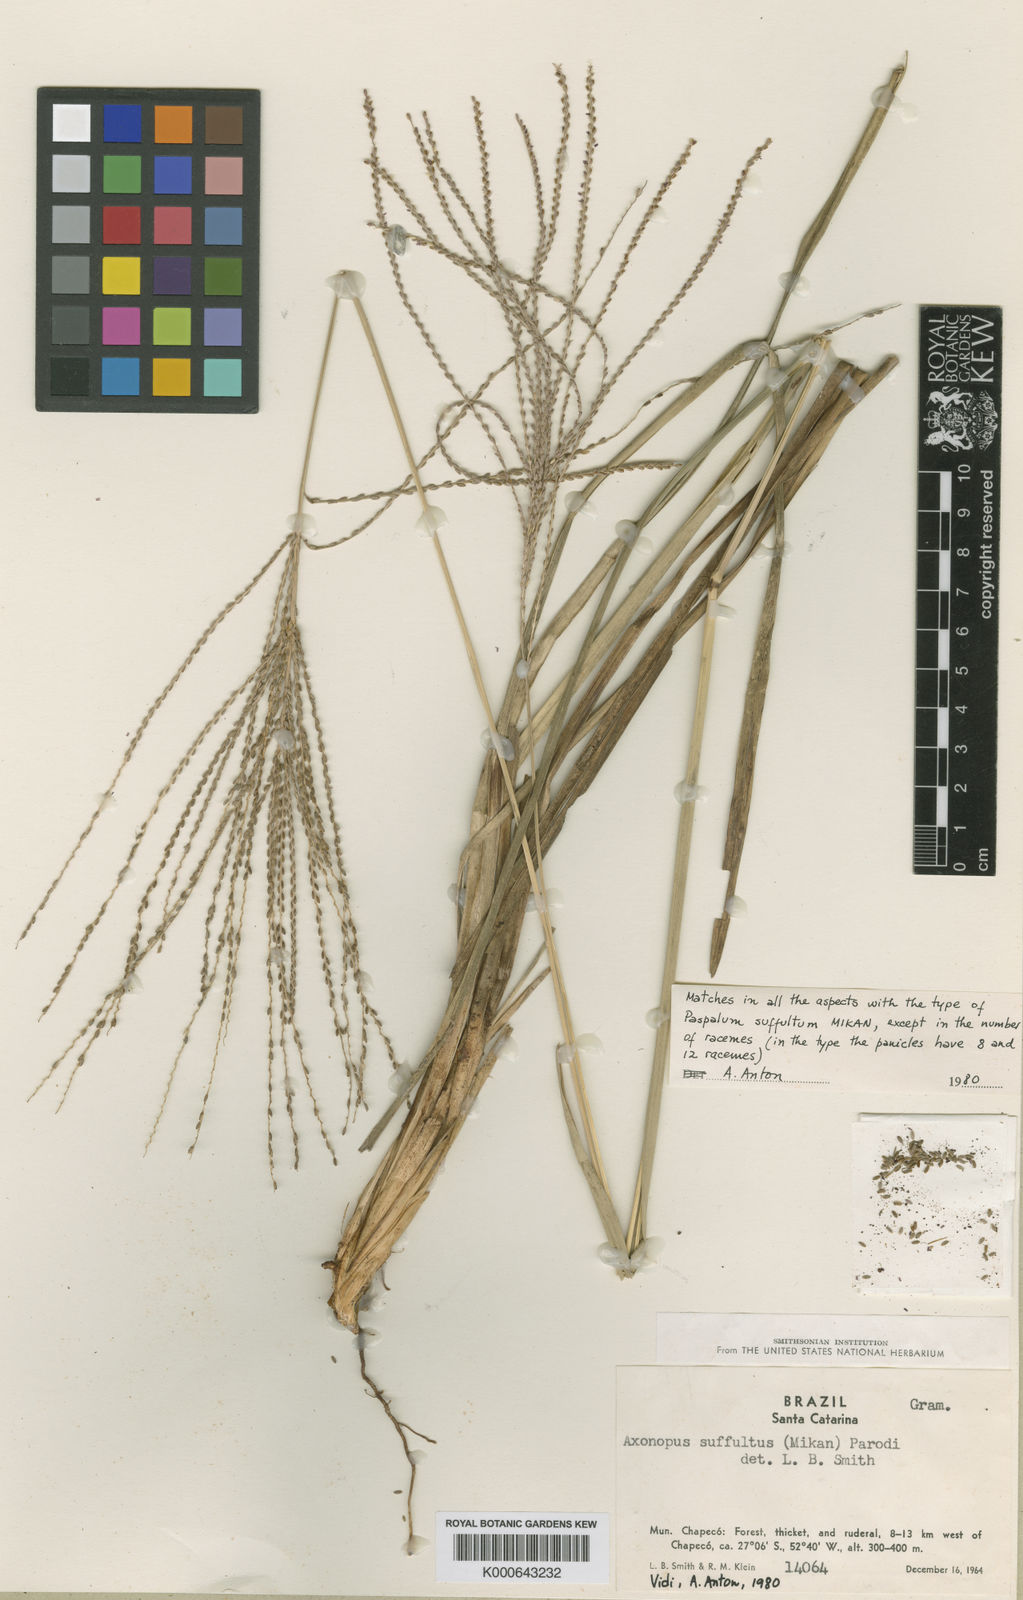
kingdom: Plantae
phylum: Tracheophyta
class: Liliopsida
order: Poales
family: Poaceae
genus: Axonopus
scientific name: Axonopus suffultus
